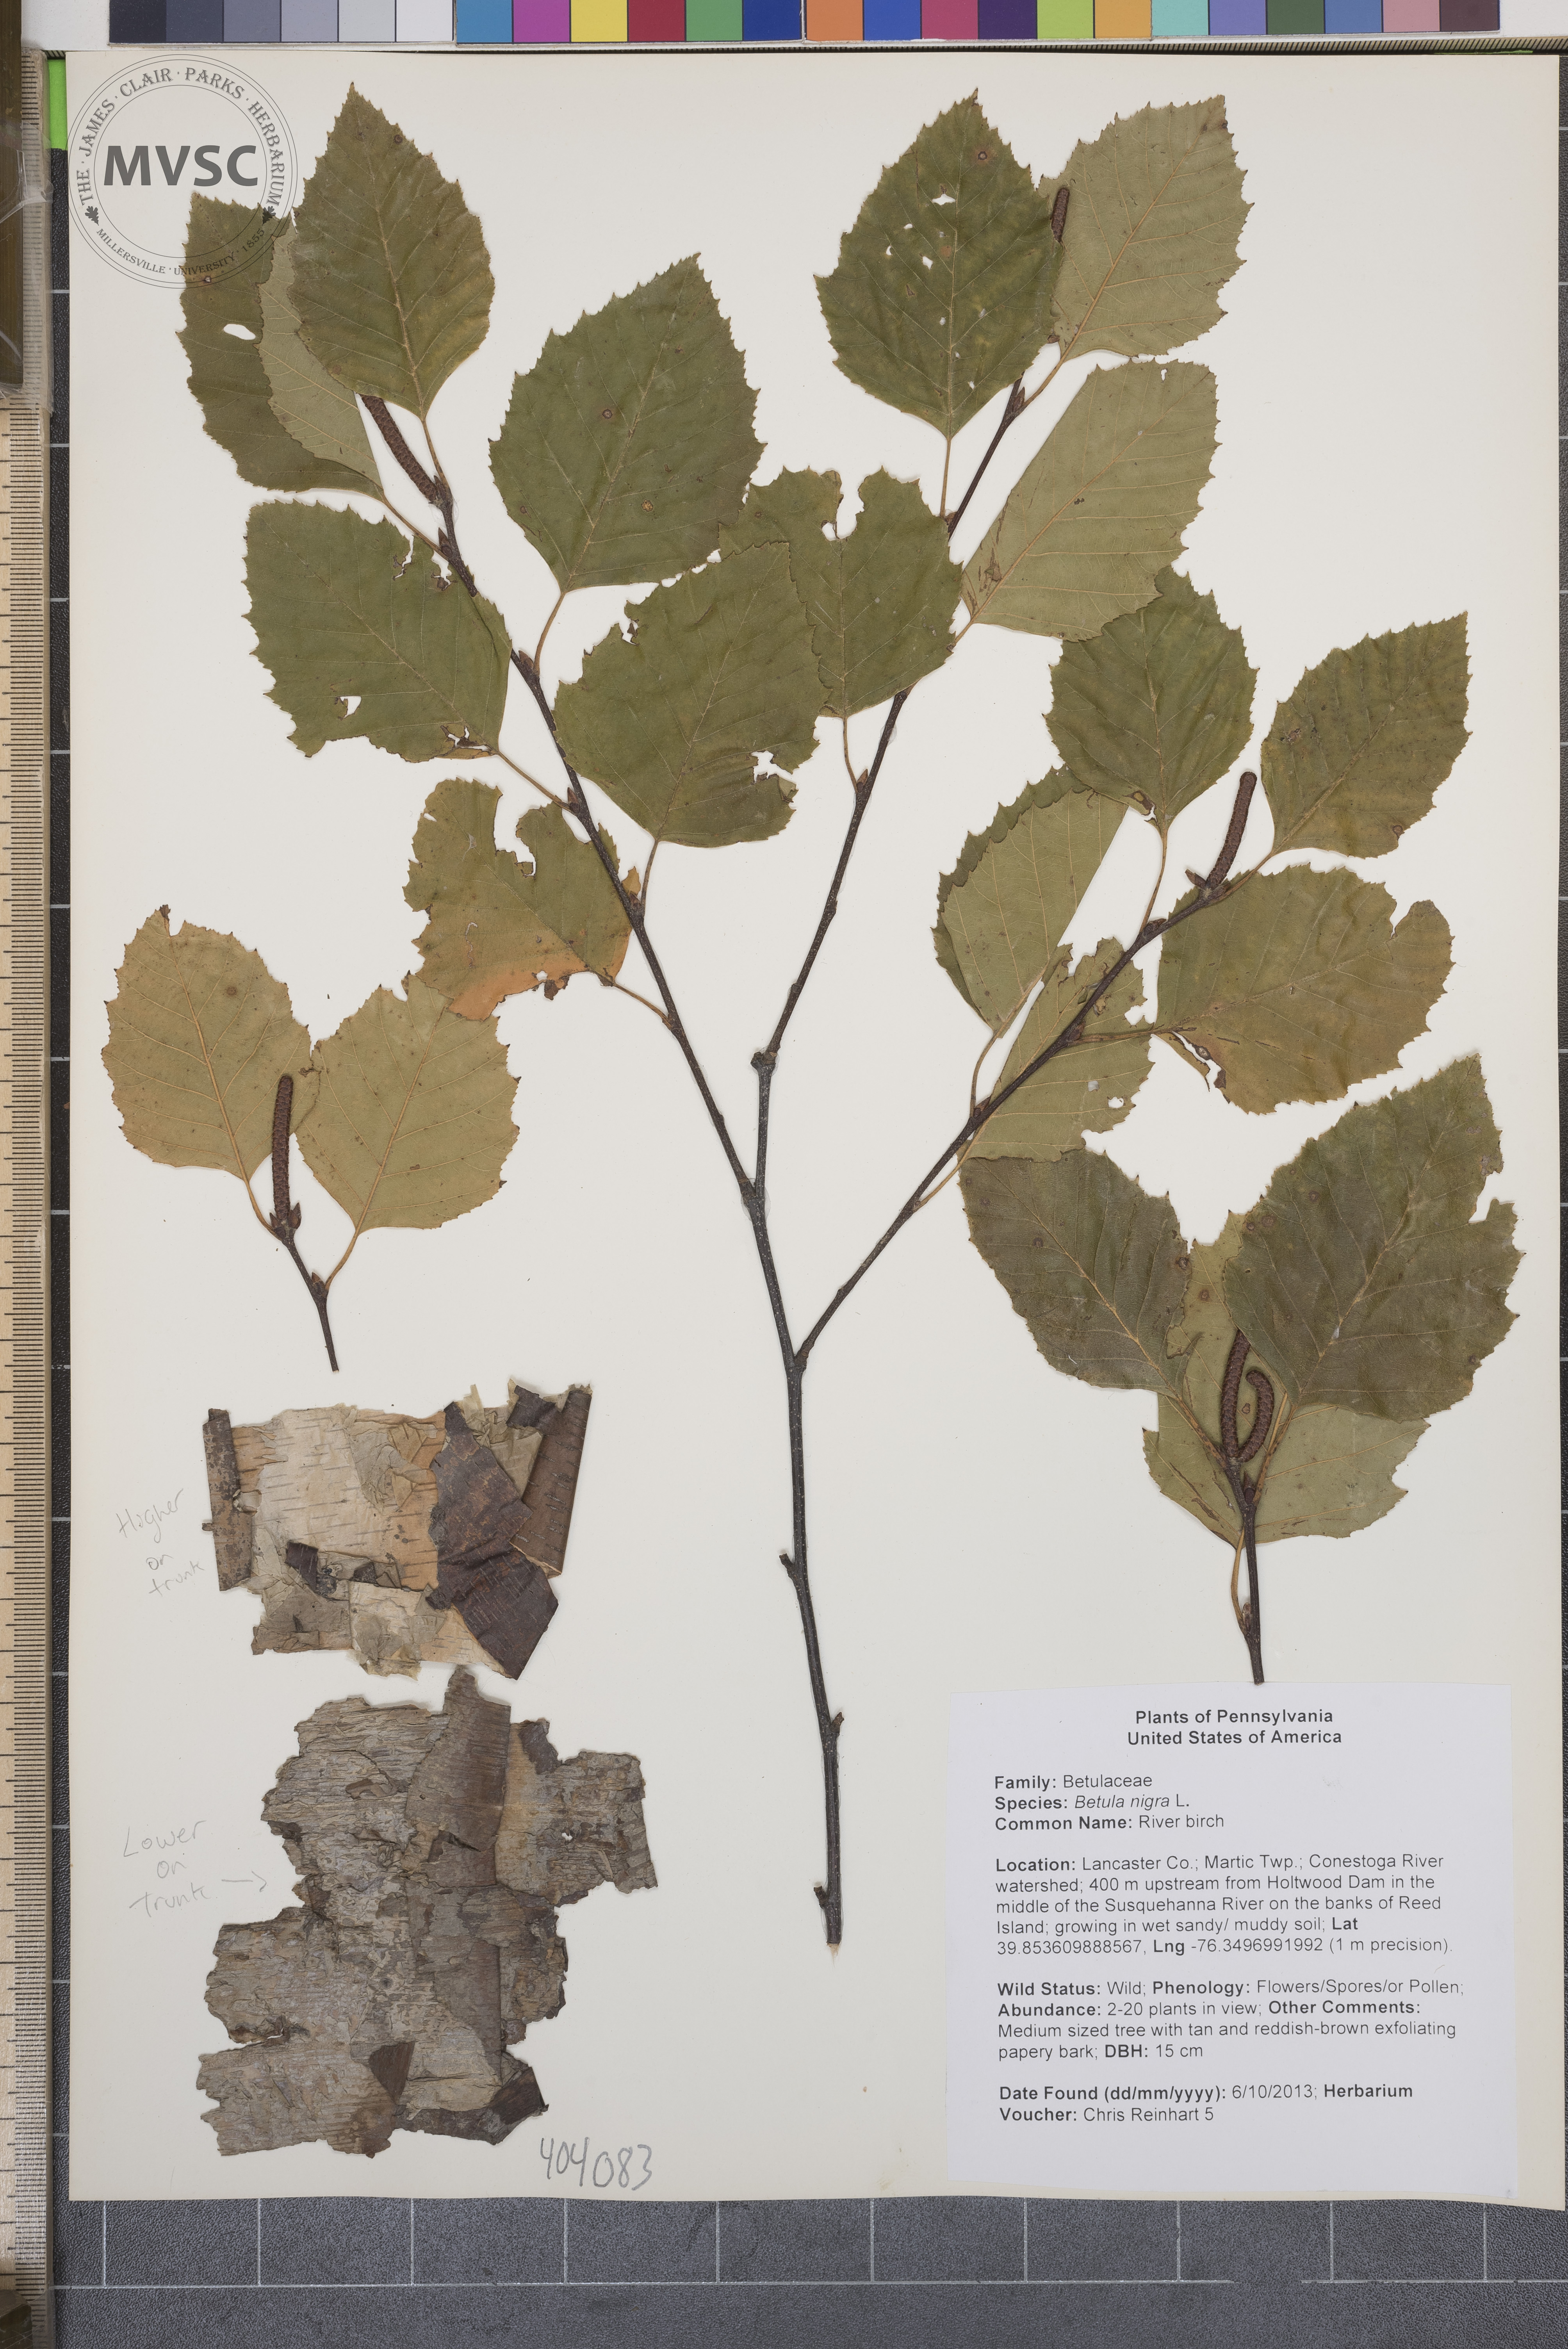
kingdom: Plantae
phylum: Tracheophyta
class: Magnoliopsida
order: Fagales
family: Betulaceae
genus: Betula
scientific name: Betula nigra
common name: River birch
